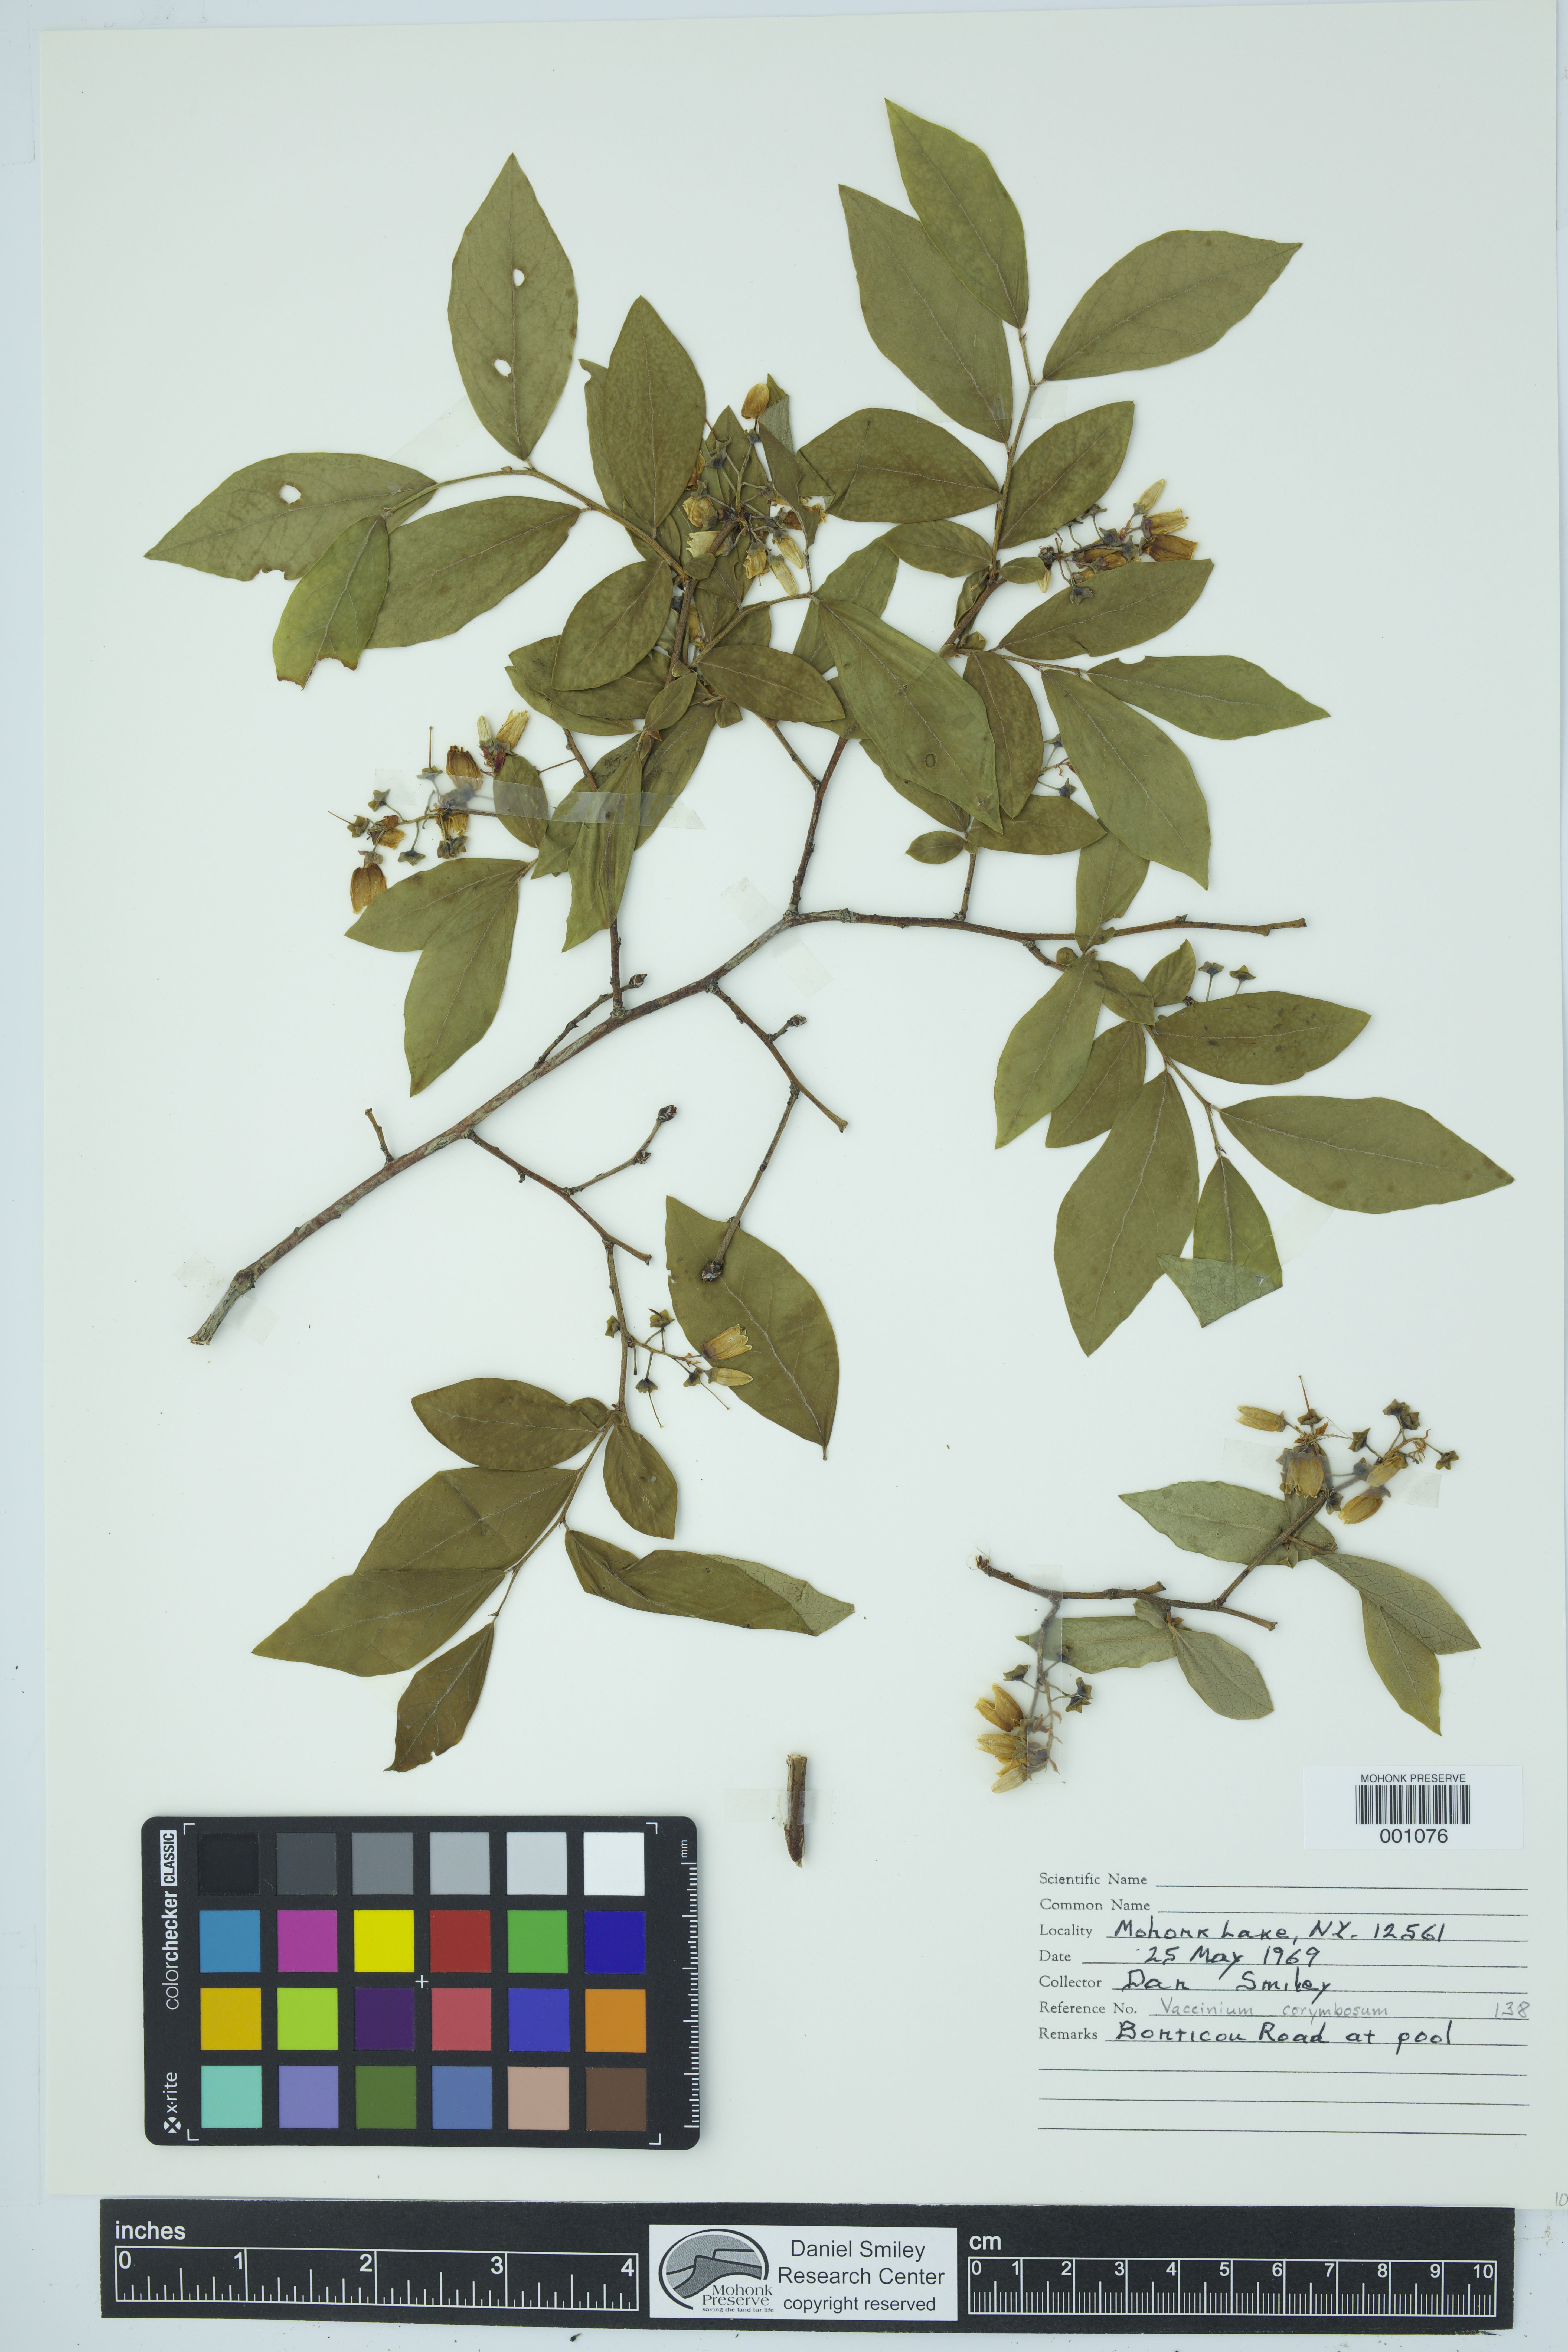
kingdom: Plantae
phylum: Tracheophyta
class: Magnoliopsida
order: Ericales
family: Ericaceae
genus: Vaccinium
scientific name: Vaccinium corymbosum
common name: Blueberry
